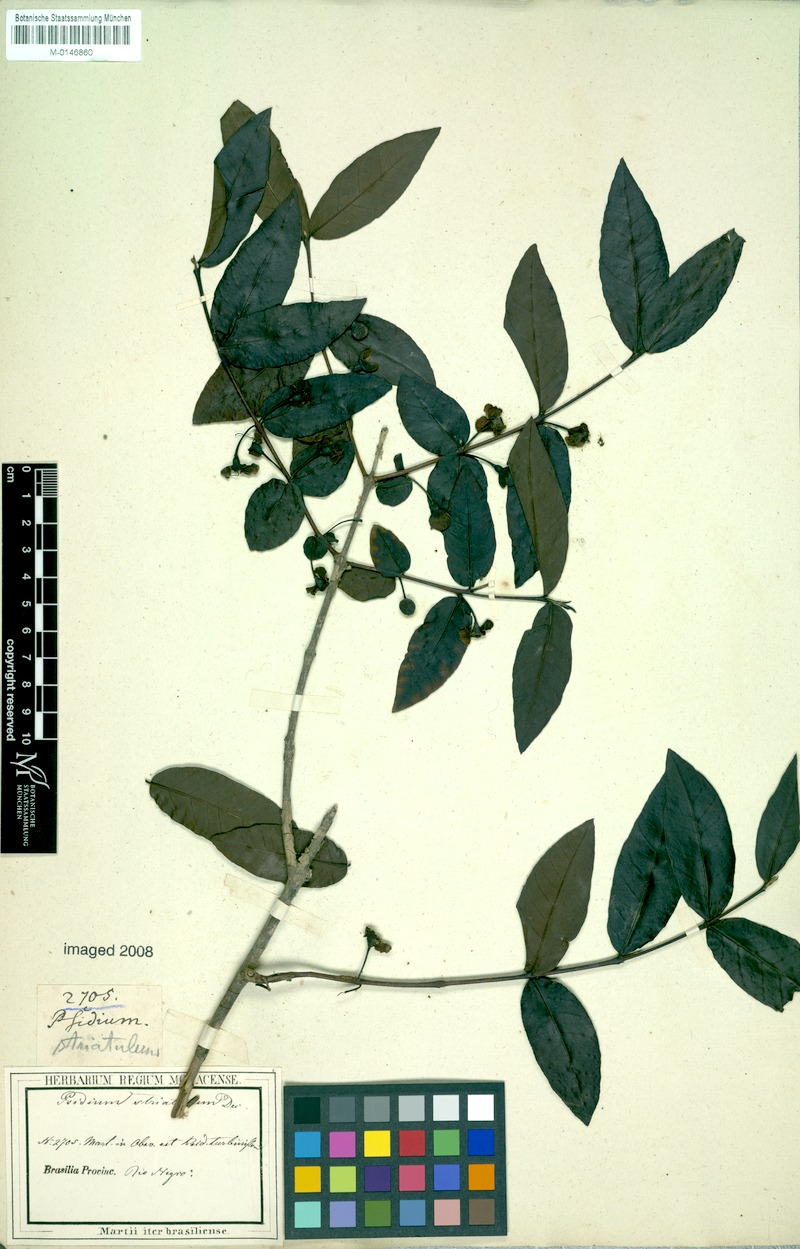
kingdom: Plantae
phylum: Tracheophyta
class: Magnoliopsida
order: Myrtales
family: Myrtaceae
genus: Psidium
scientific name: Psidium striatulum
